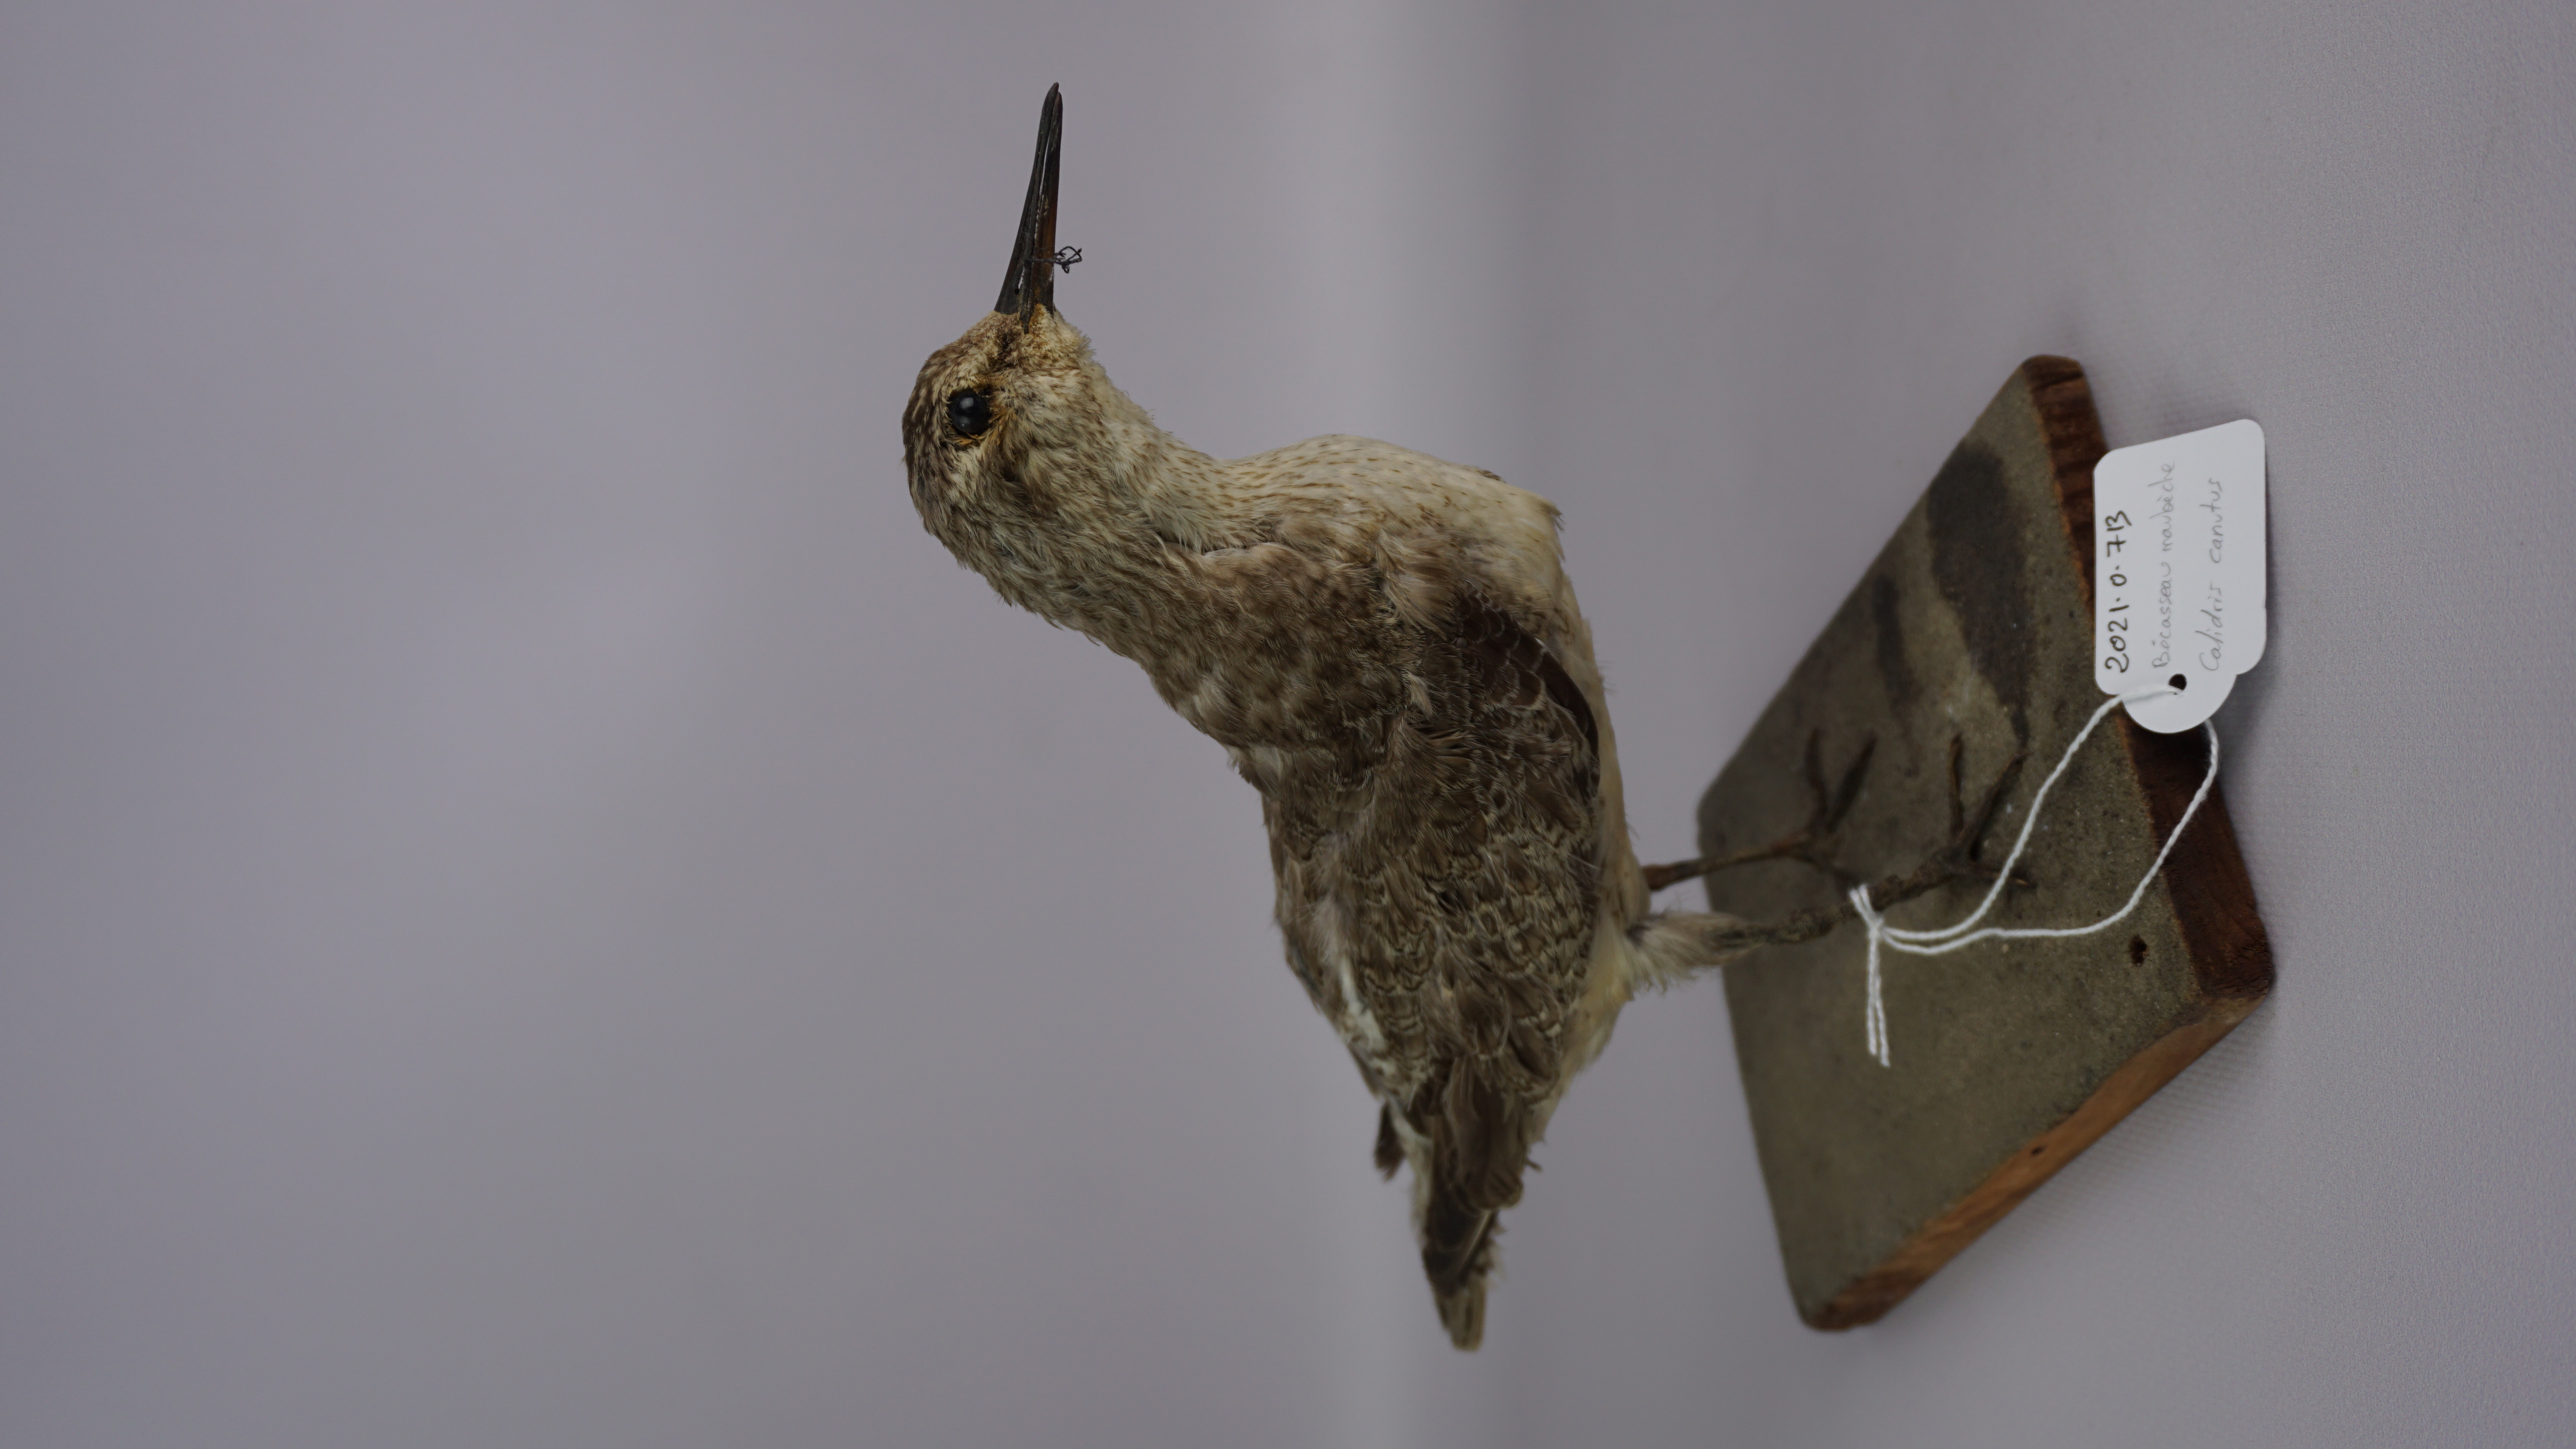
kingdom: Animalia
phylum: Chordata
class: Aves
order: Charadriiformes
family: Scolopacidae
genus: Calidris
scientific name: Calidris canutus
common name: Red knot
